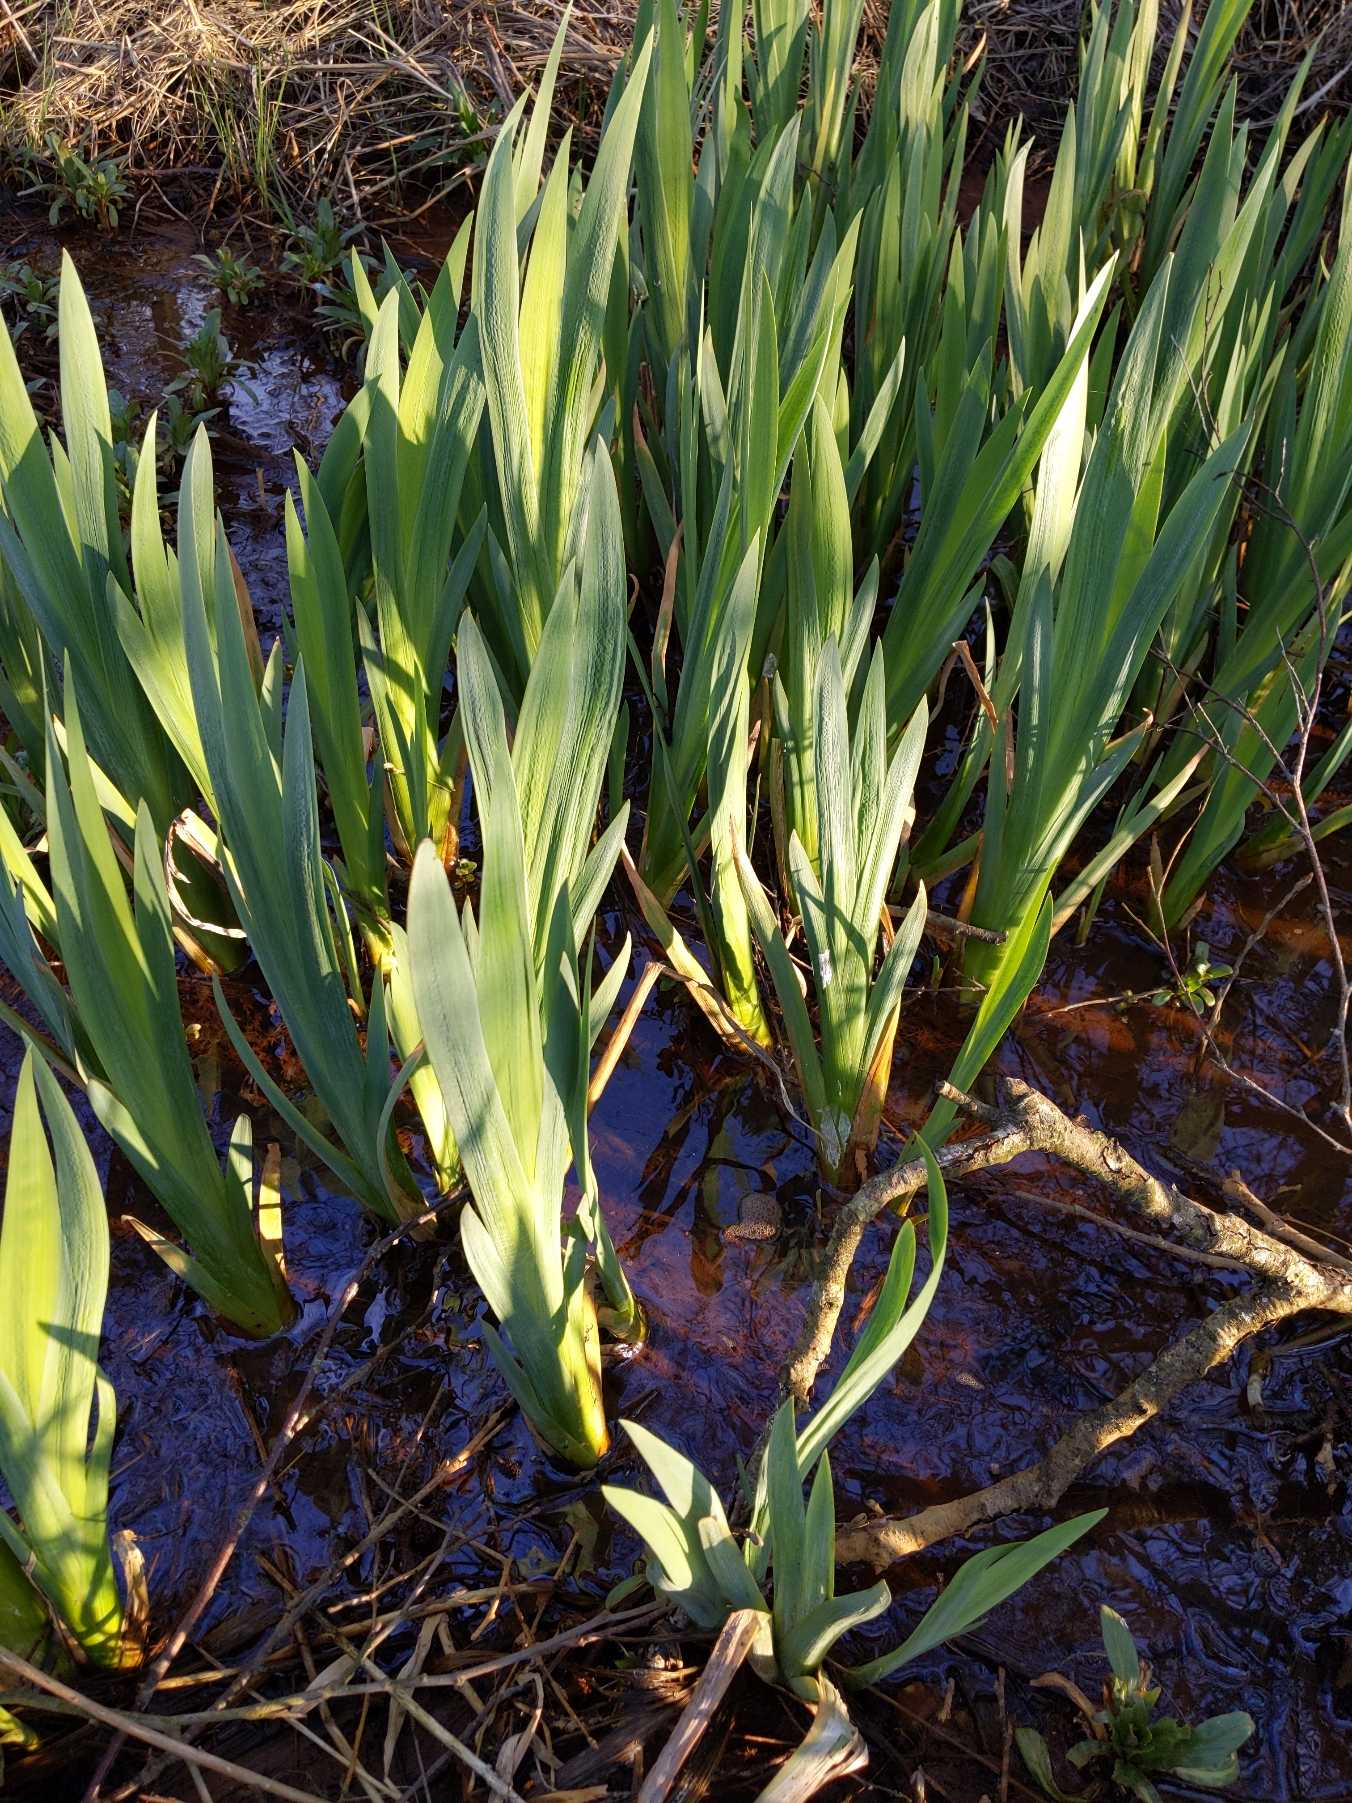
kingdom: Plantae
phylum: Tracheophyta
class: Liliopsida
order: Asparagales
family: Iridaceae
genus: Iris
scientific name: Iris pseudacorus
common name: Gul iris
